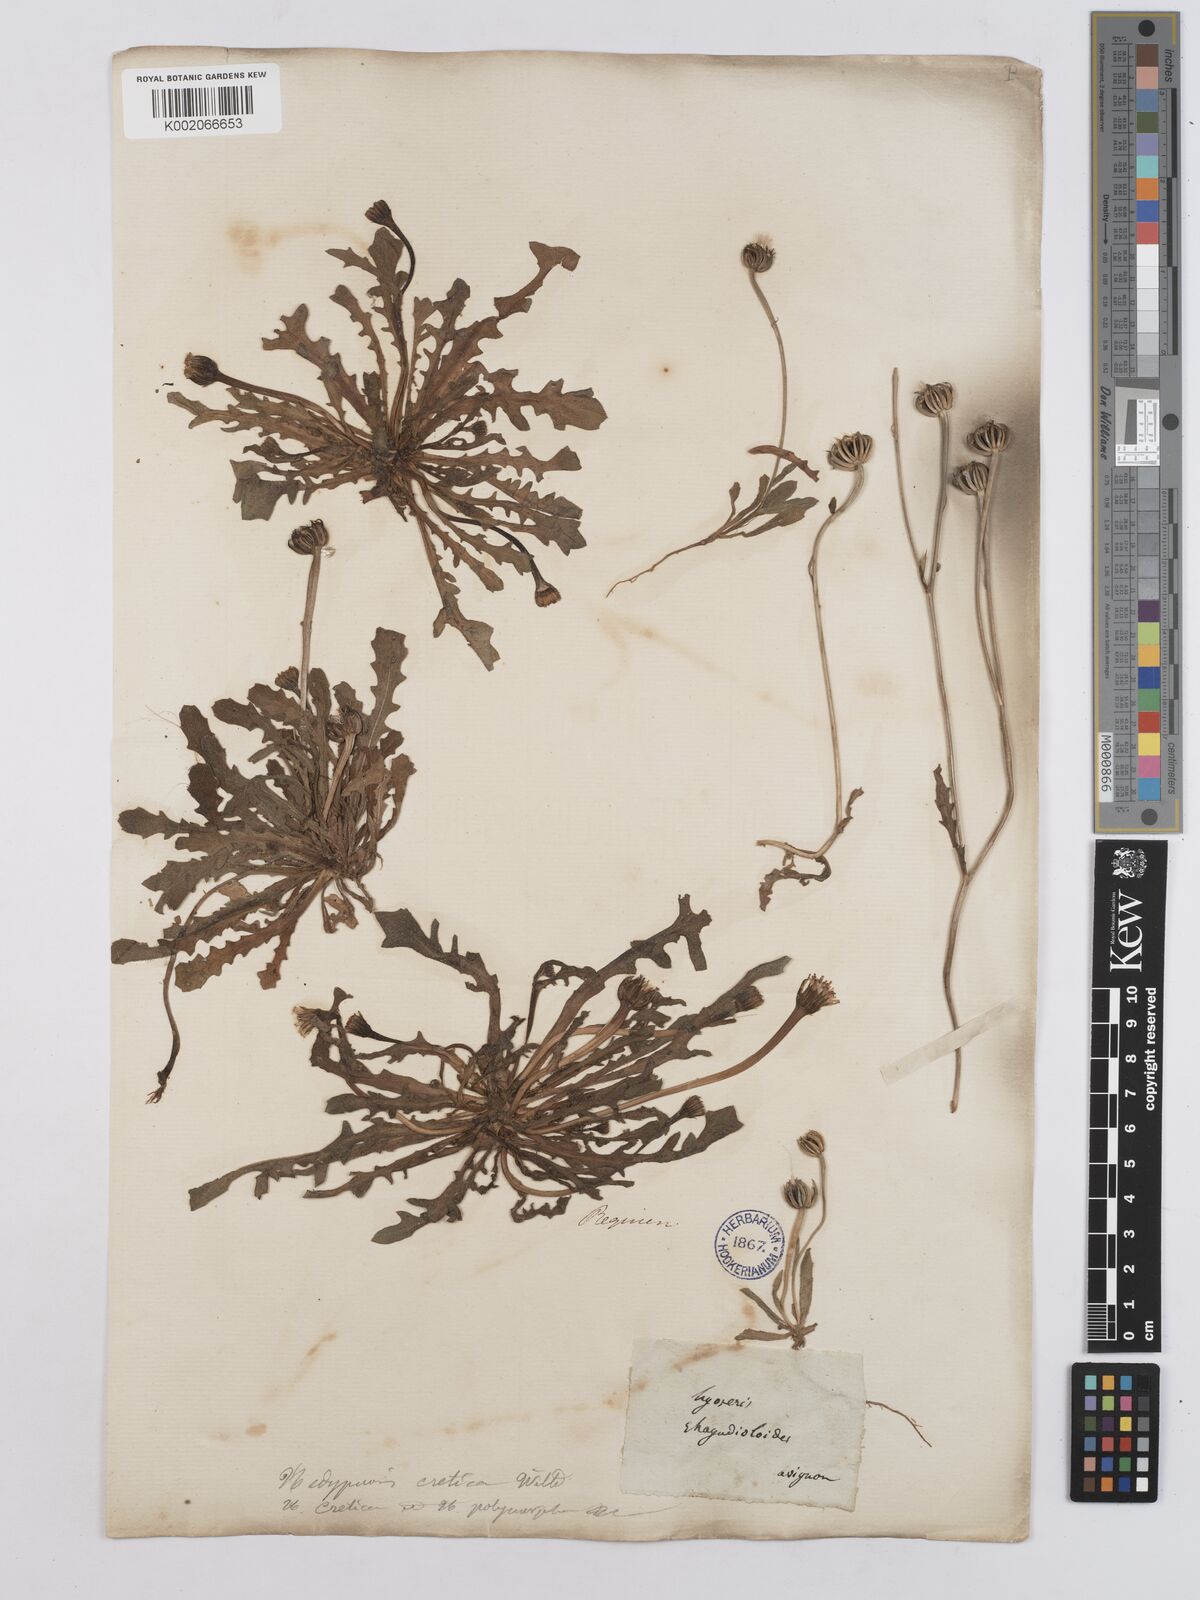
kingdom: Plantae
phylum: Tracheophyta
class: Magnoliopsida
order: Asterales
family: Asteraceae
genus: Hedypnois
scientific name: Hedypnois cretica
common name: Scaly hawkbit
